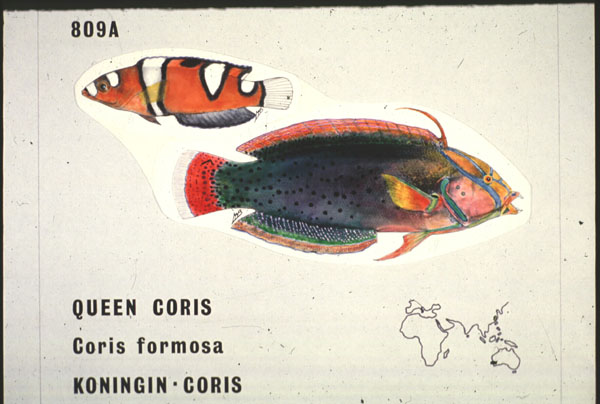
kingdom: Animalia
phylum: Chordata
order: Perciformes
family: Labridae
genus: Coris
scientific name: Coris formosa
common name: Queen coris
